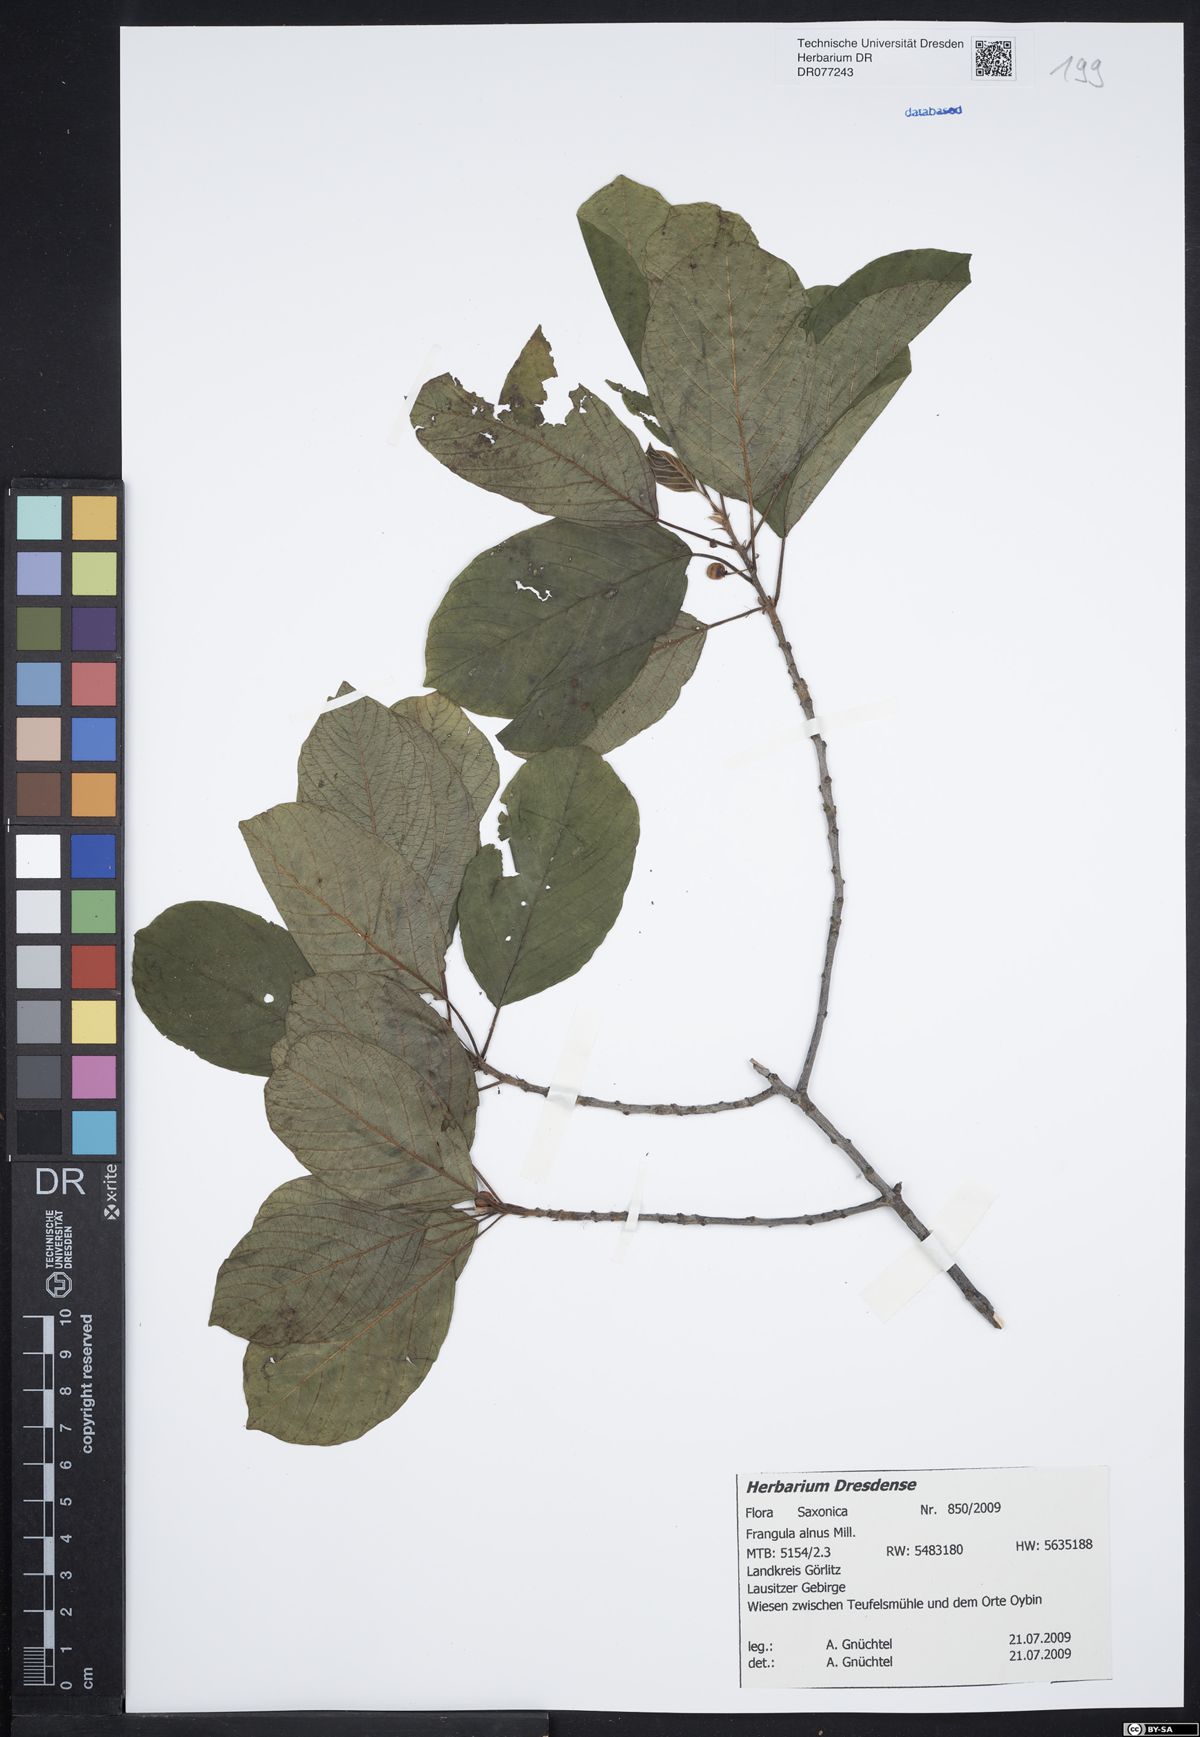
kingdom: Plantae
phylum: Tracheophyta
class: Magnoliopsida
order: Rosales
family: Rhamnaceae
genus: Frangula
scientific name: Frangula alnus
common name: Alder buckthorn
